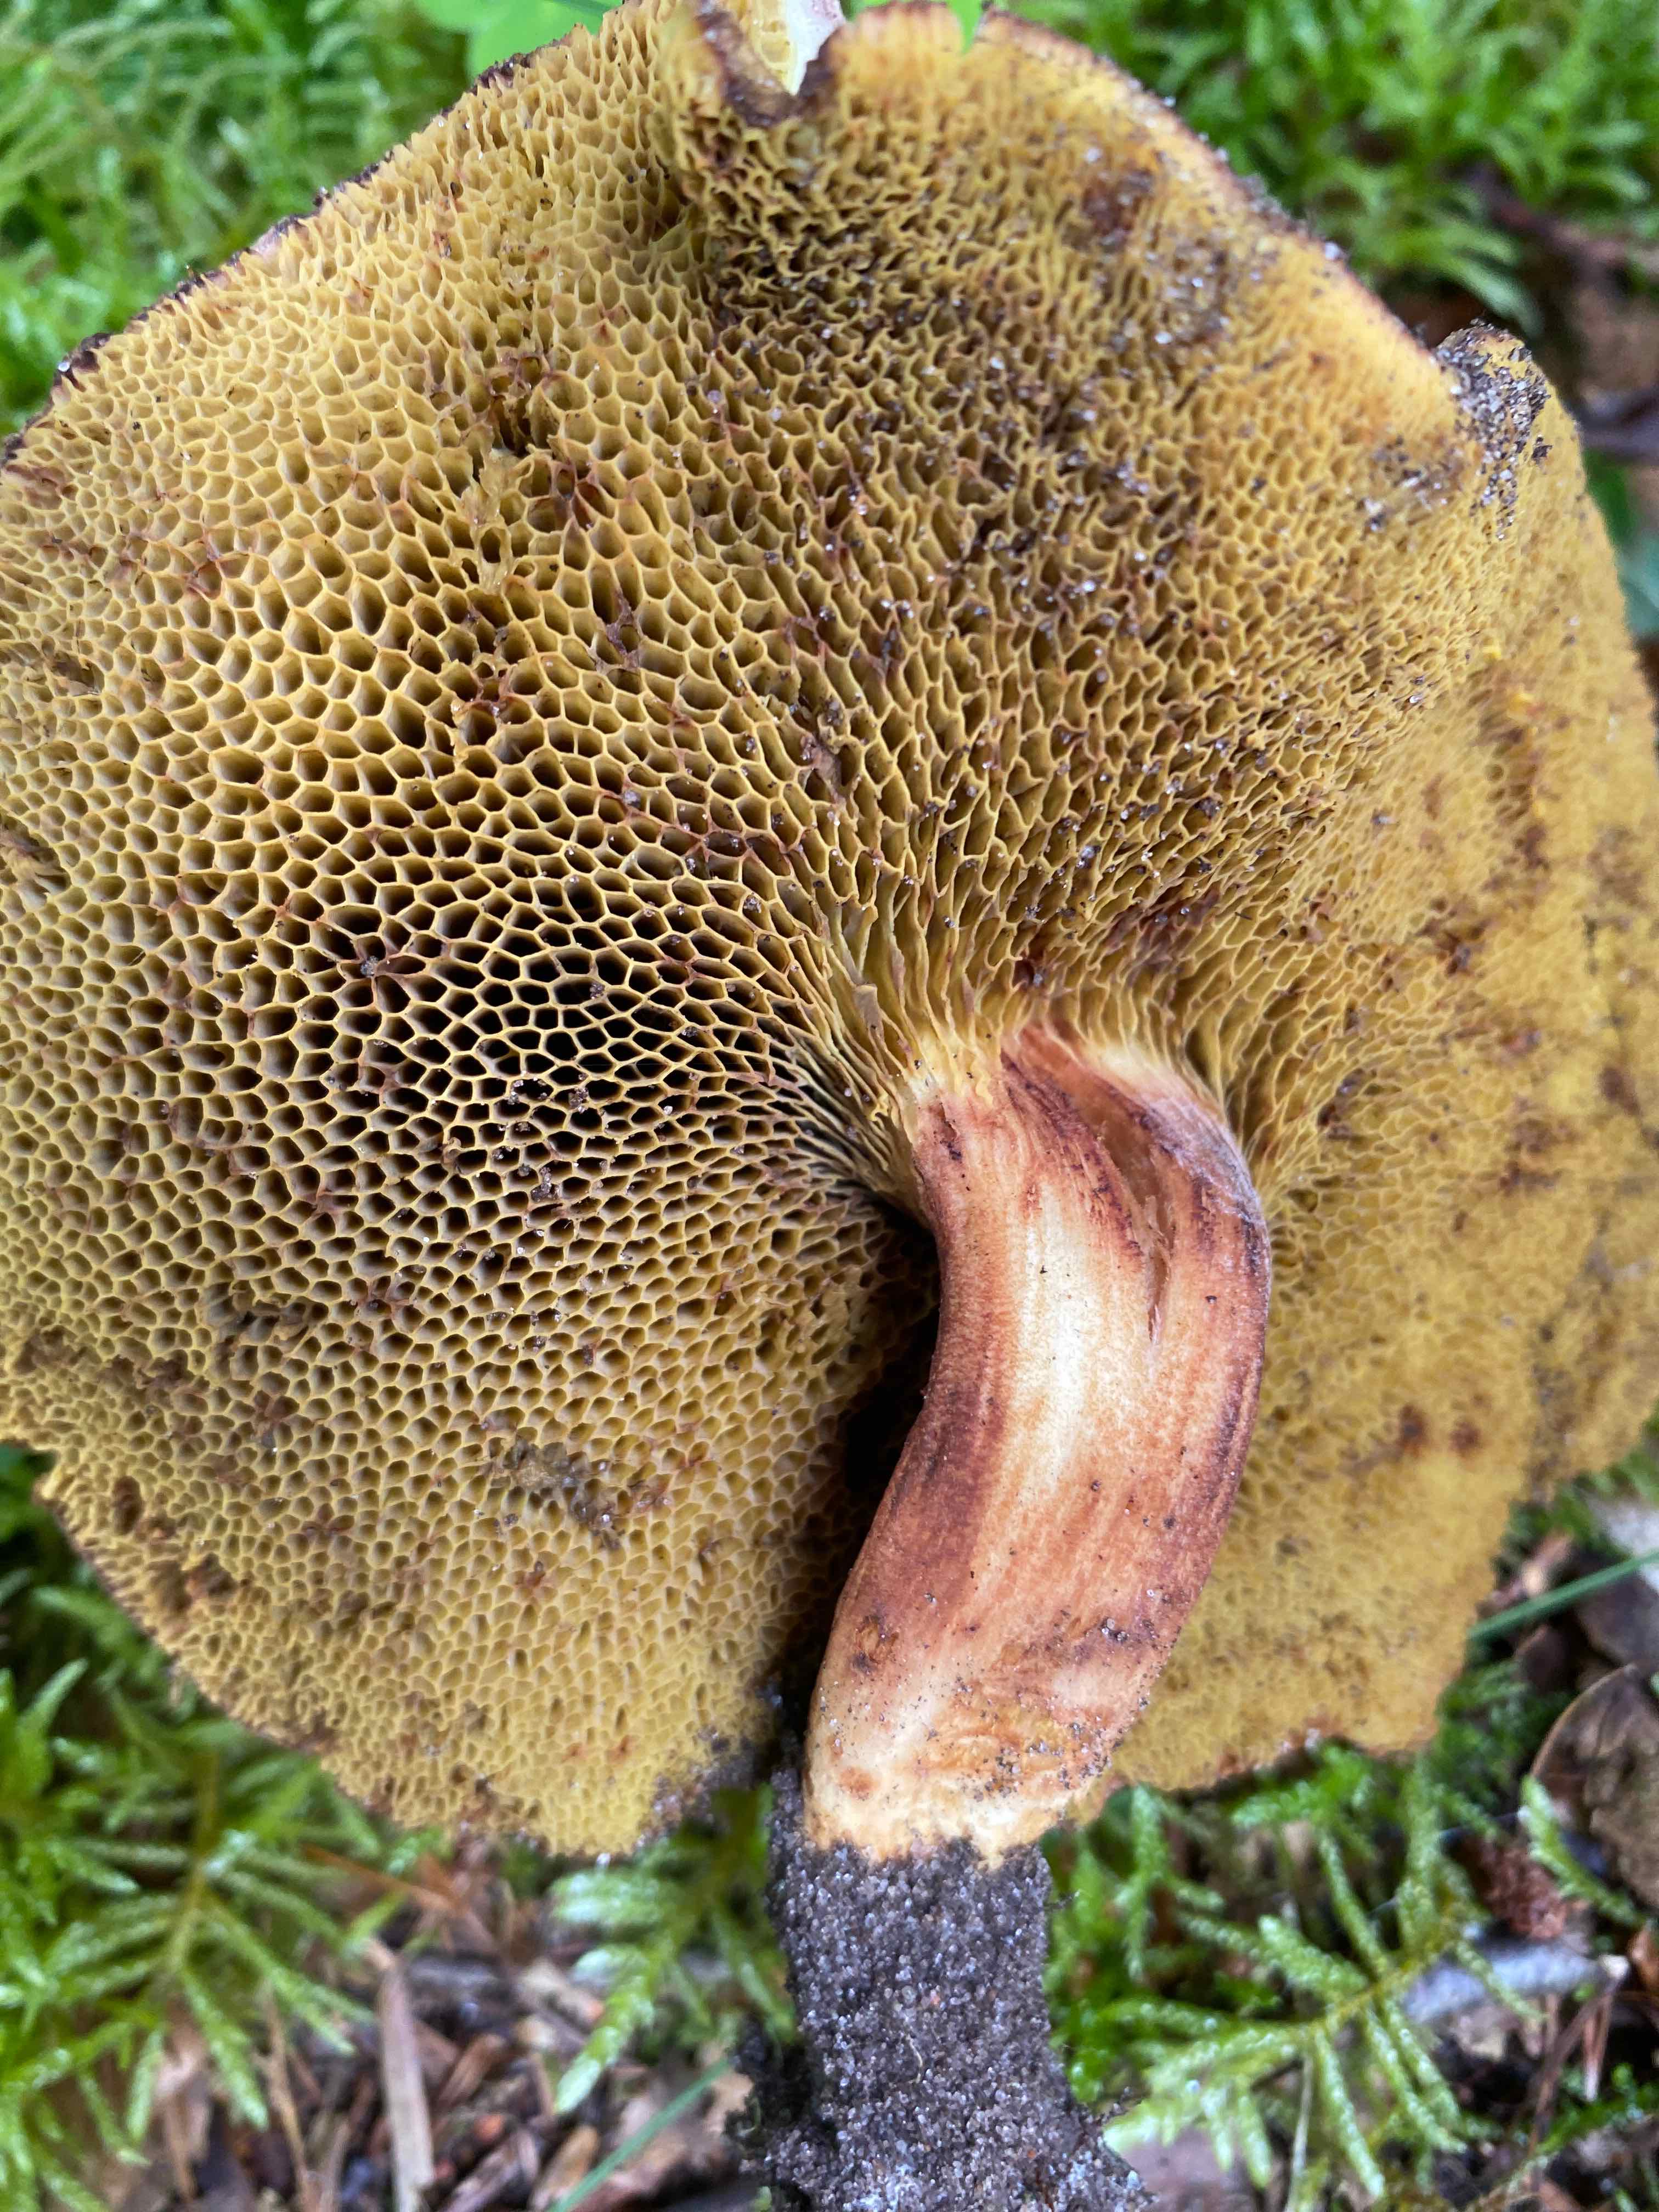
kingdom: Fungi
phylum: Basidiomycota
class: Agaricomycetes
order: Boletales
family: Boletaceae
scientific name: Boletaceae
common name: rørhatfamilien
